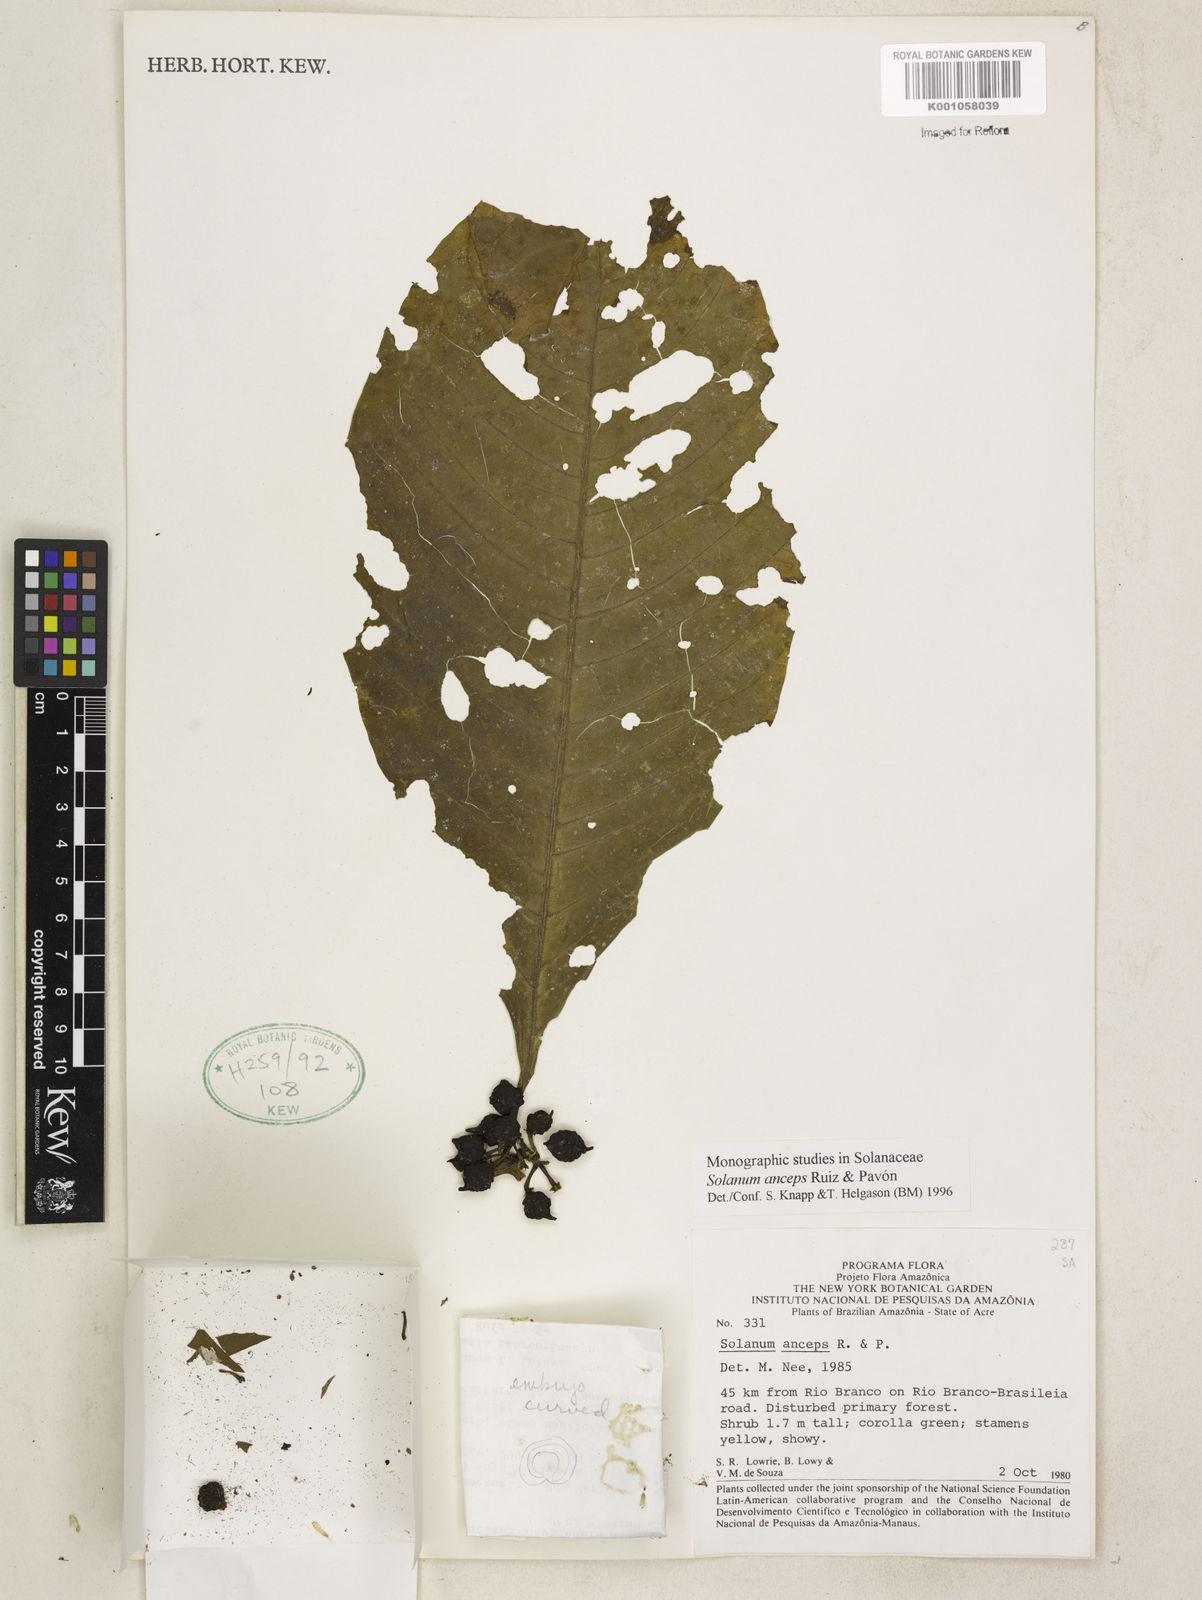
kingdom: Plantae
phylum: Tracheophyta
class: Magnoliopsida
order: Solanales
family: Solanaceae
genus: Solanum
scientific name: Solanum anceps
